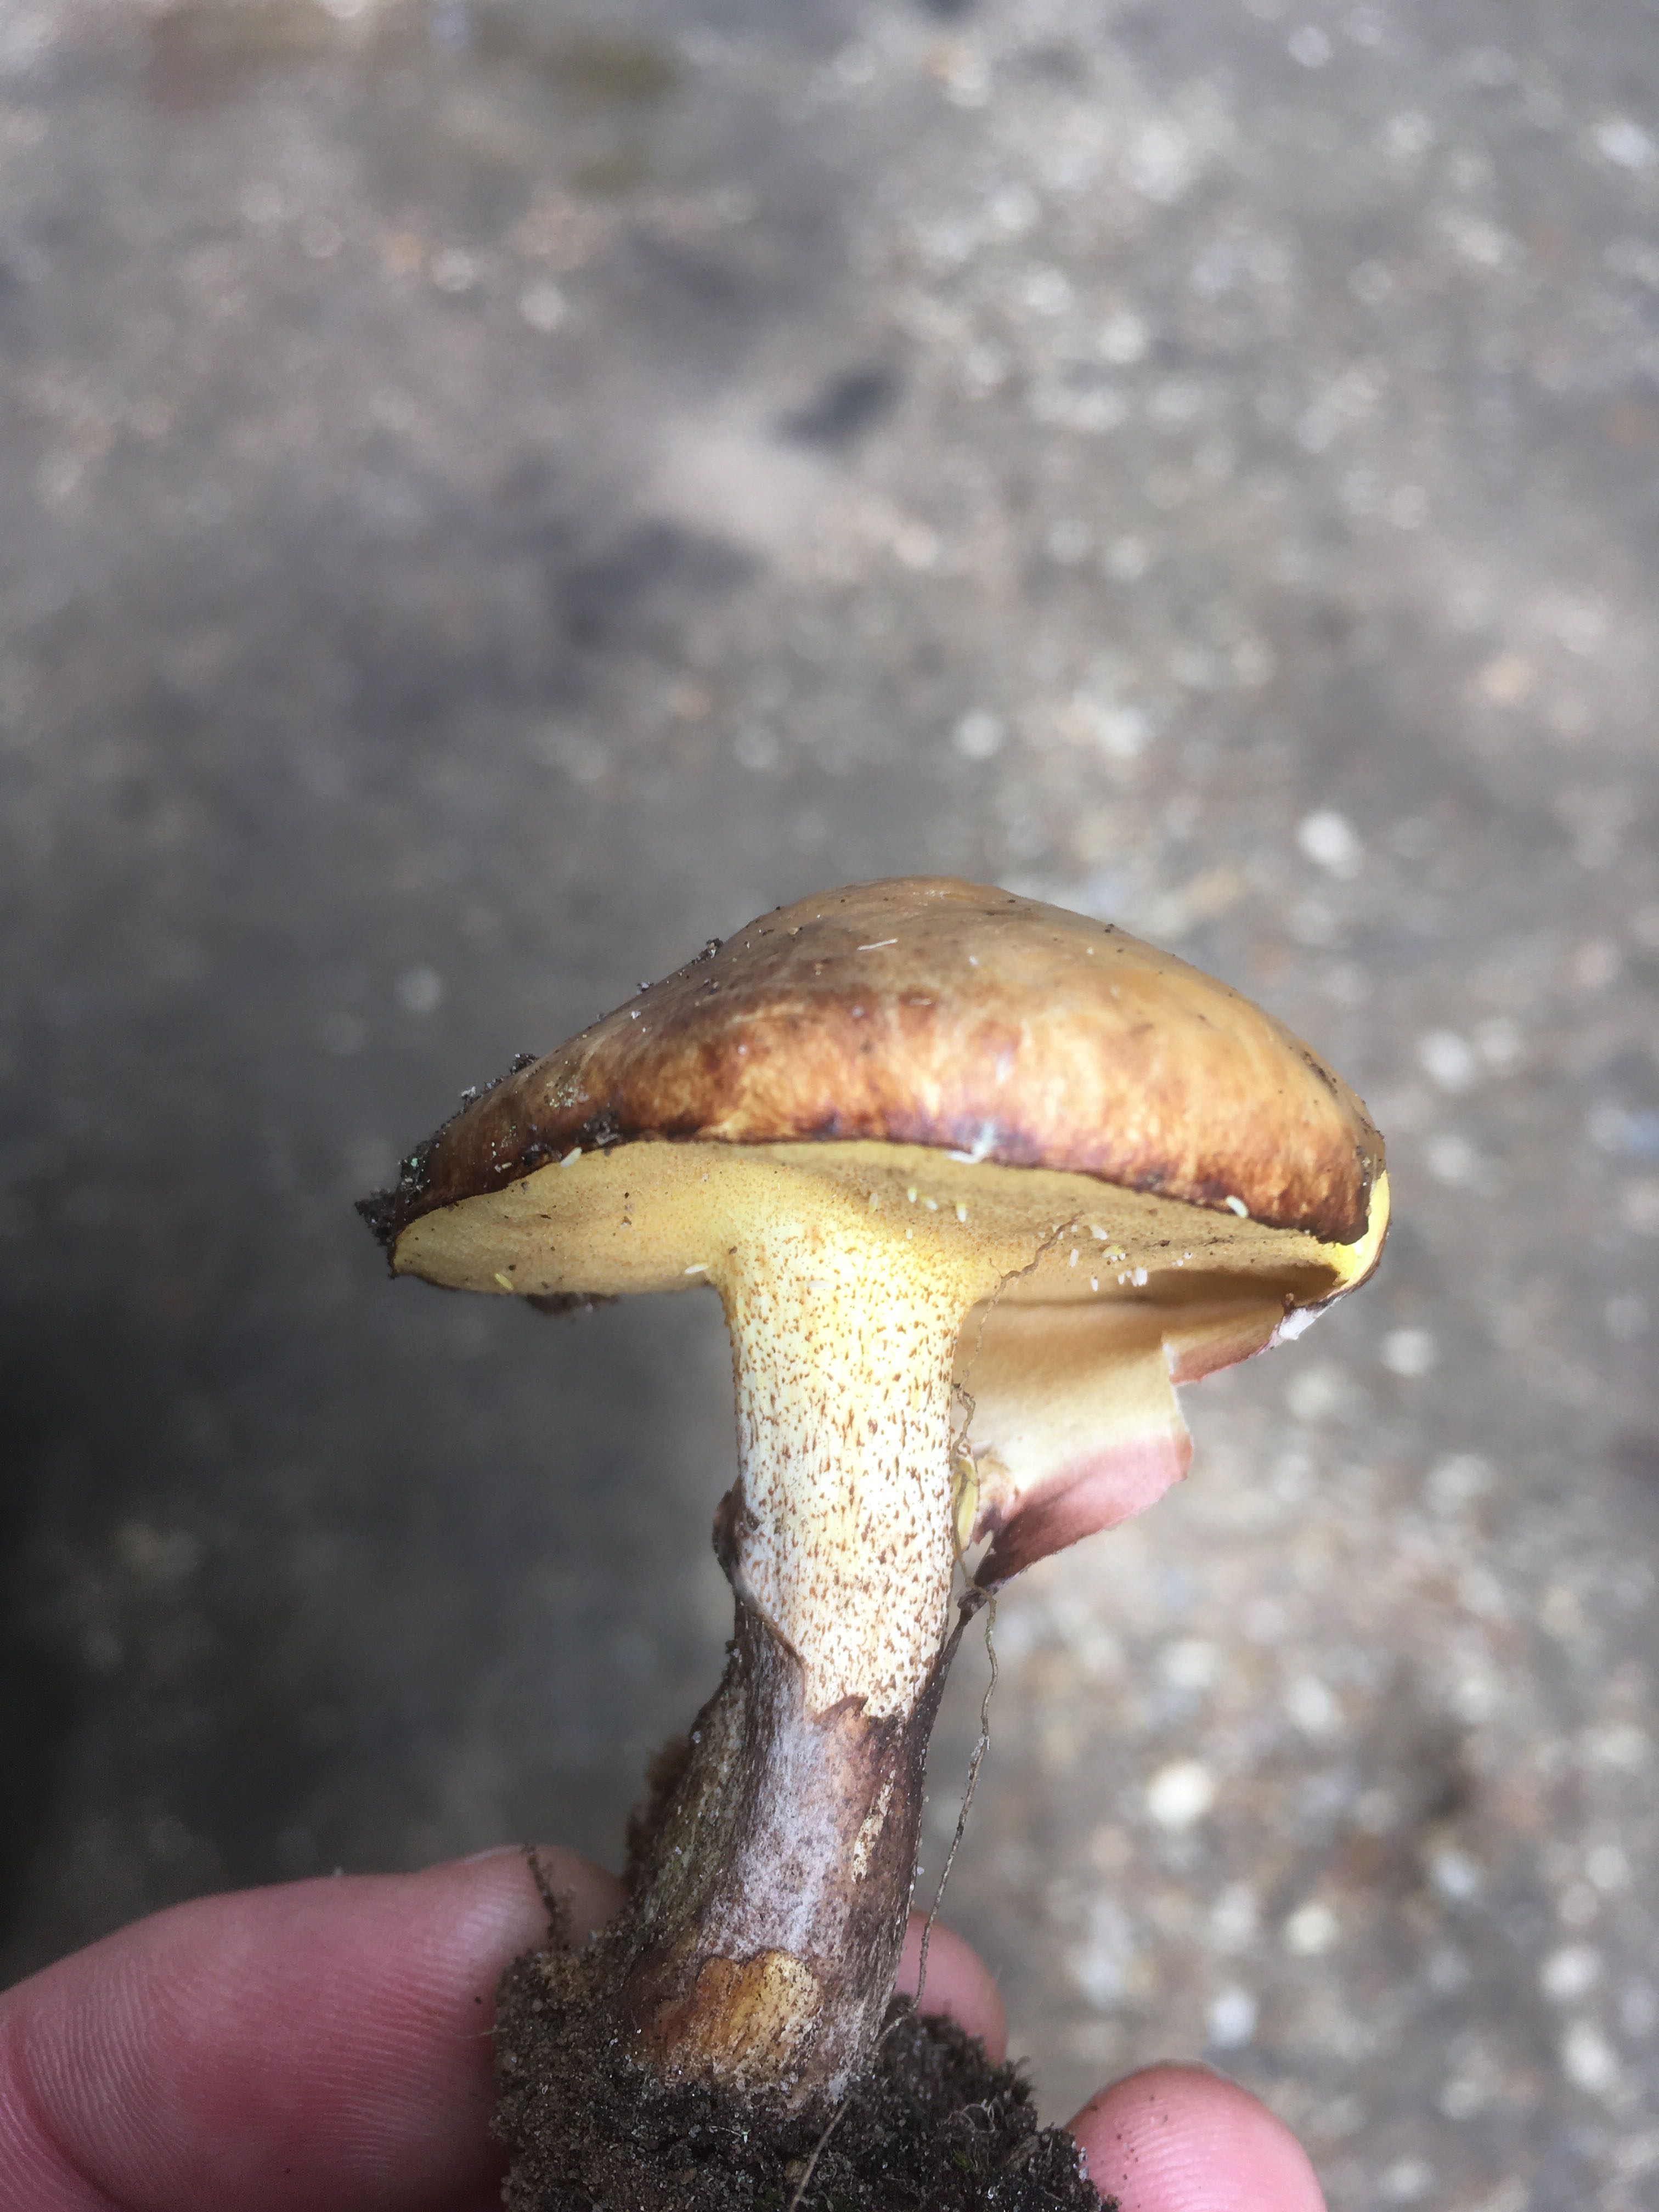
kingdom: Fungi
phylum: Basidiomycota
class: Agaricomycetes
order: Boletales
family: Suillaceae
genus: Suillus
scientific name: Suillus
